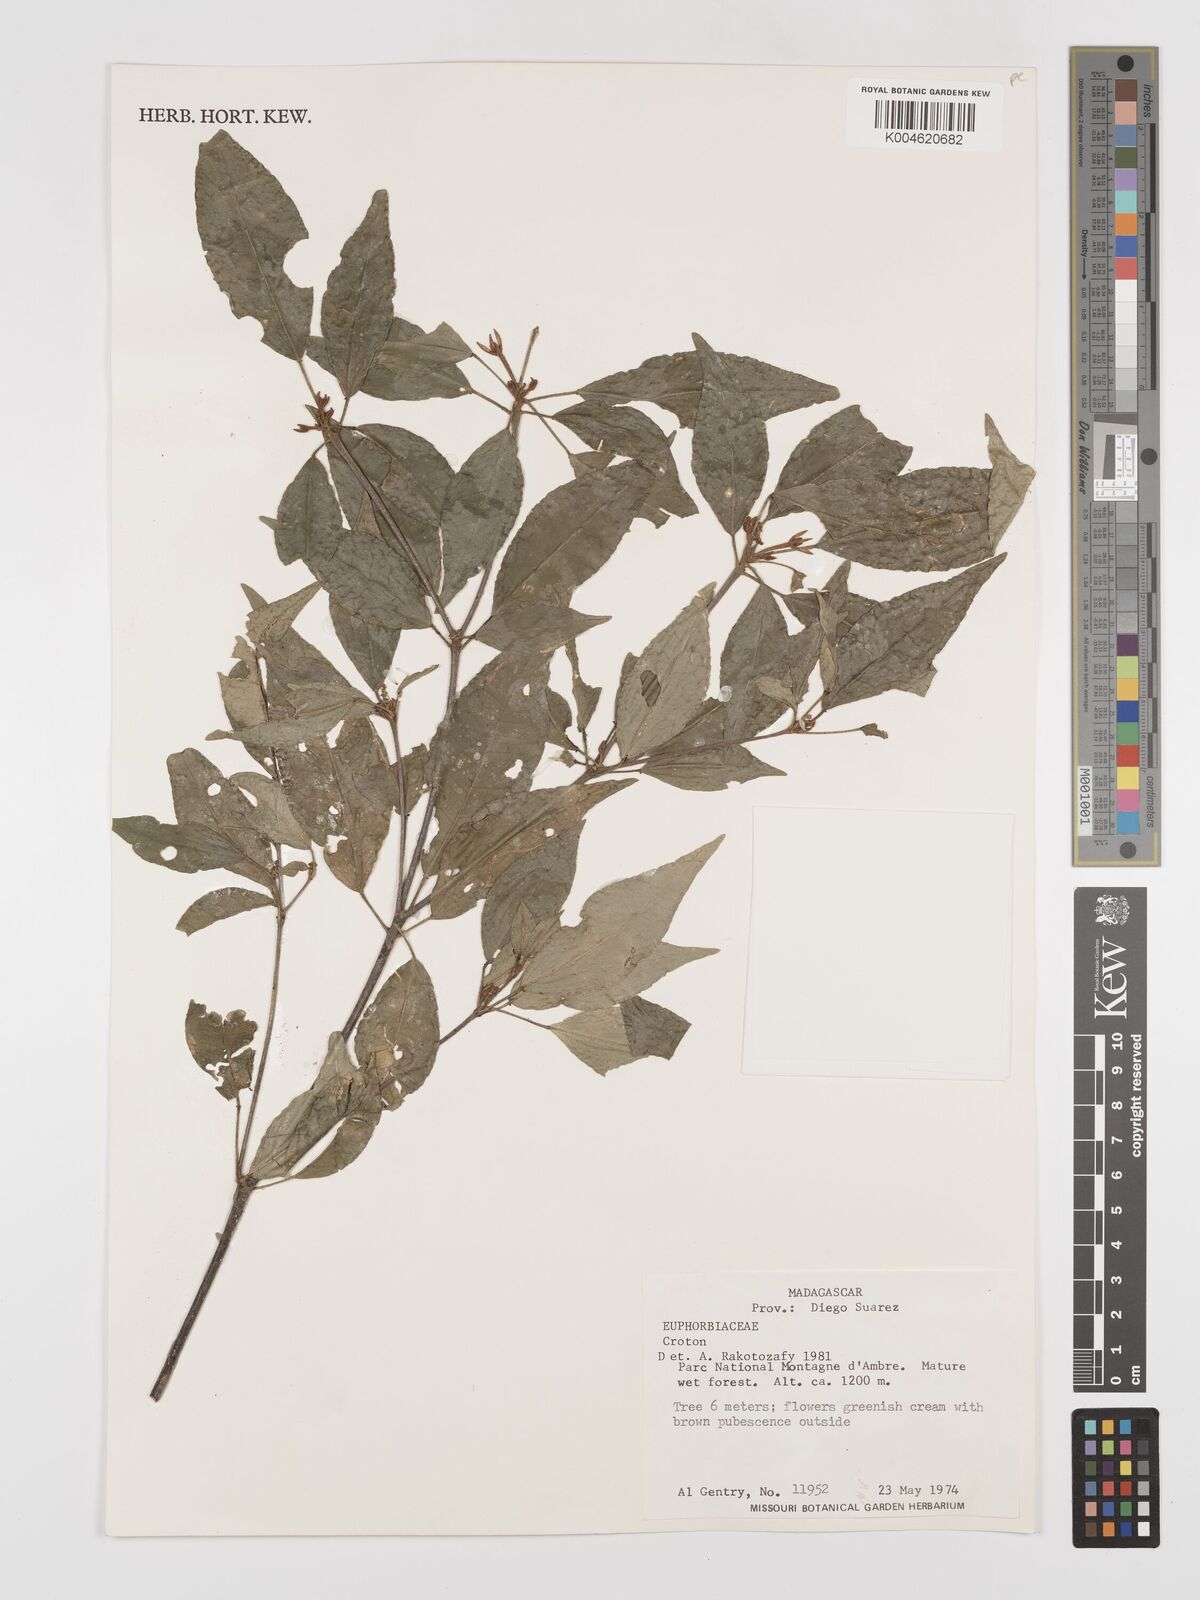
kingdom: Plantae
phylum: Tracheophyta
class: Magnoliopsida
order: Malpighiales
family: Euphorbiaceae
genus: Croton
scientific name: Croton
